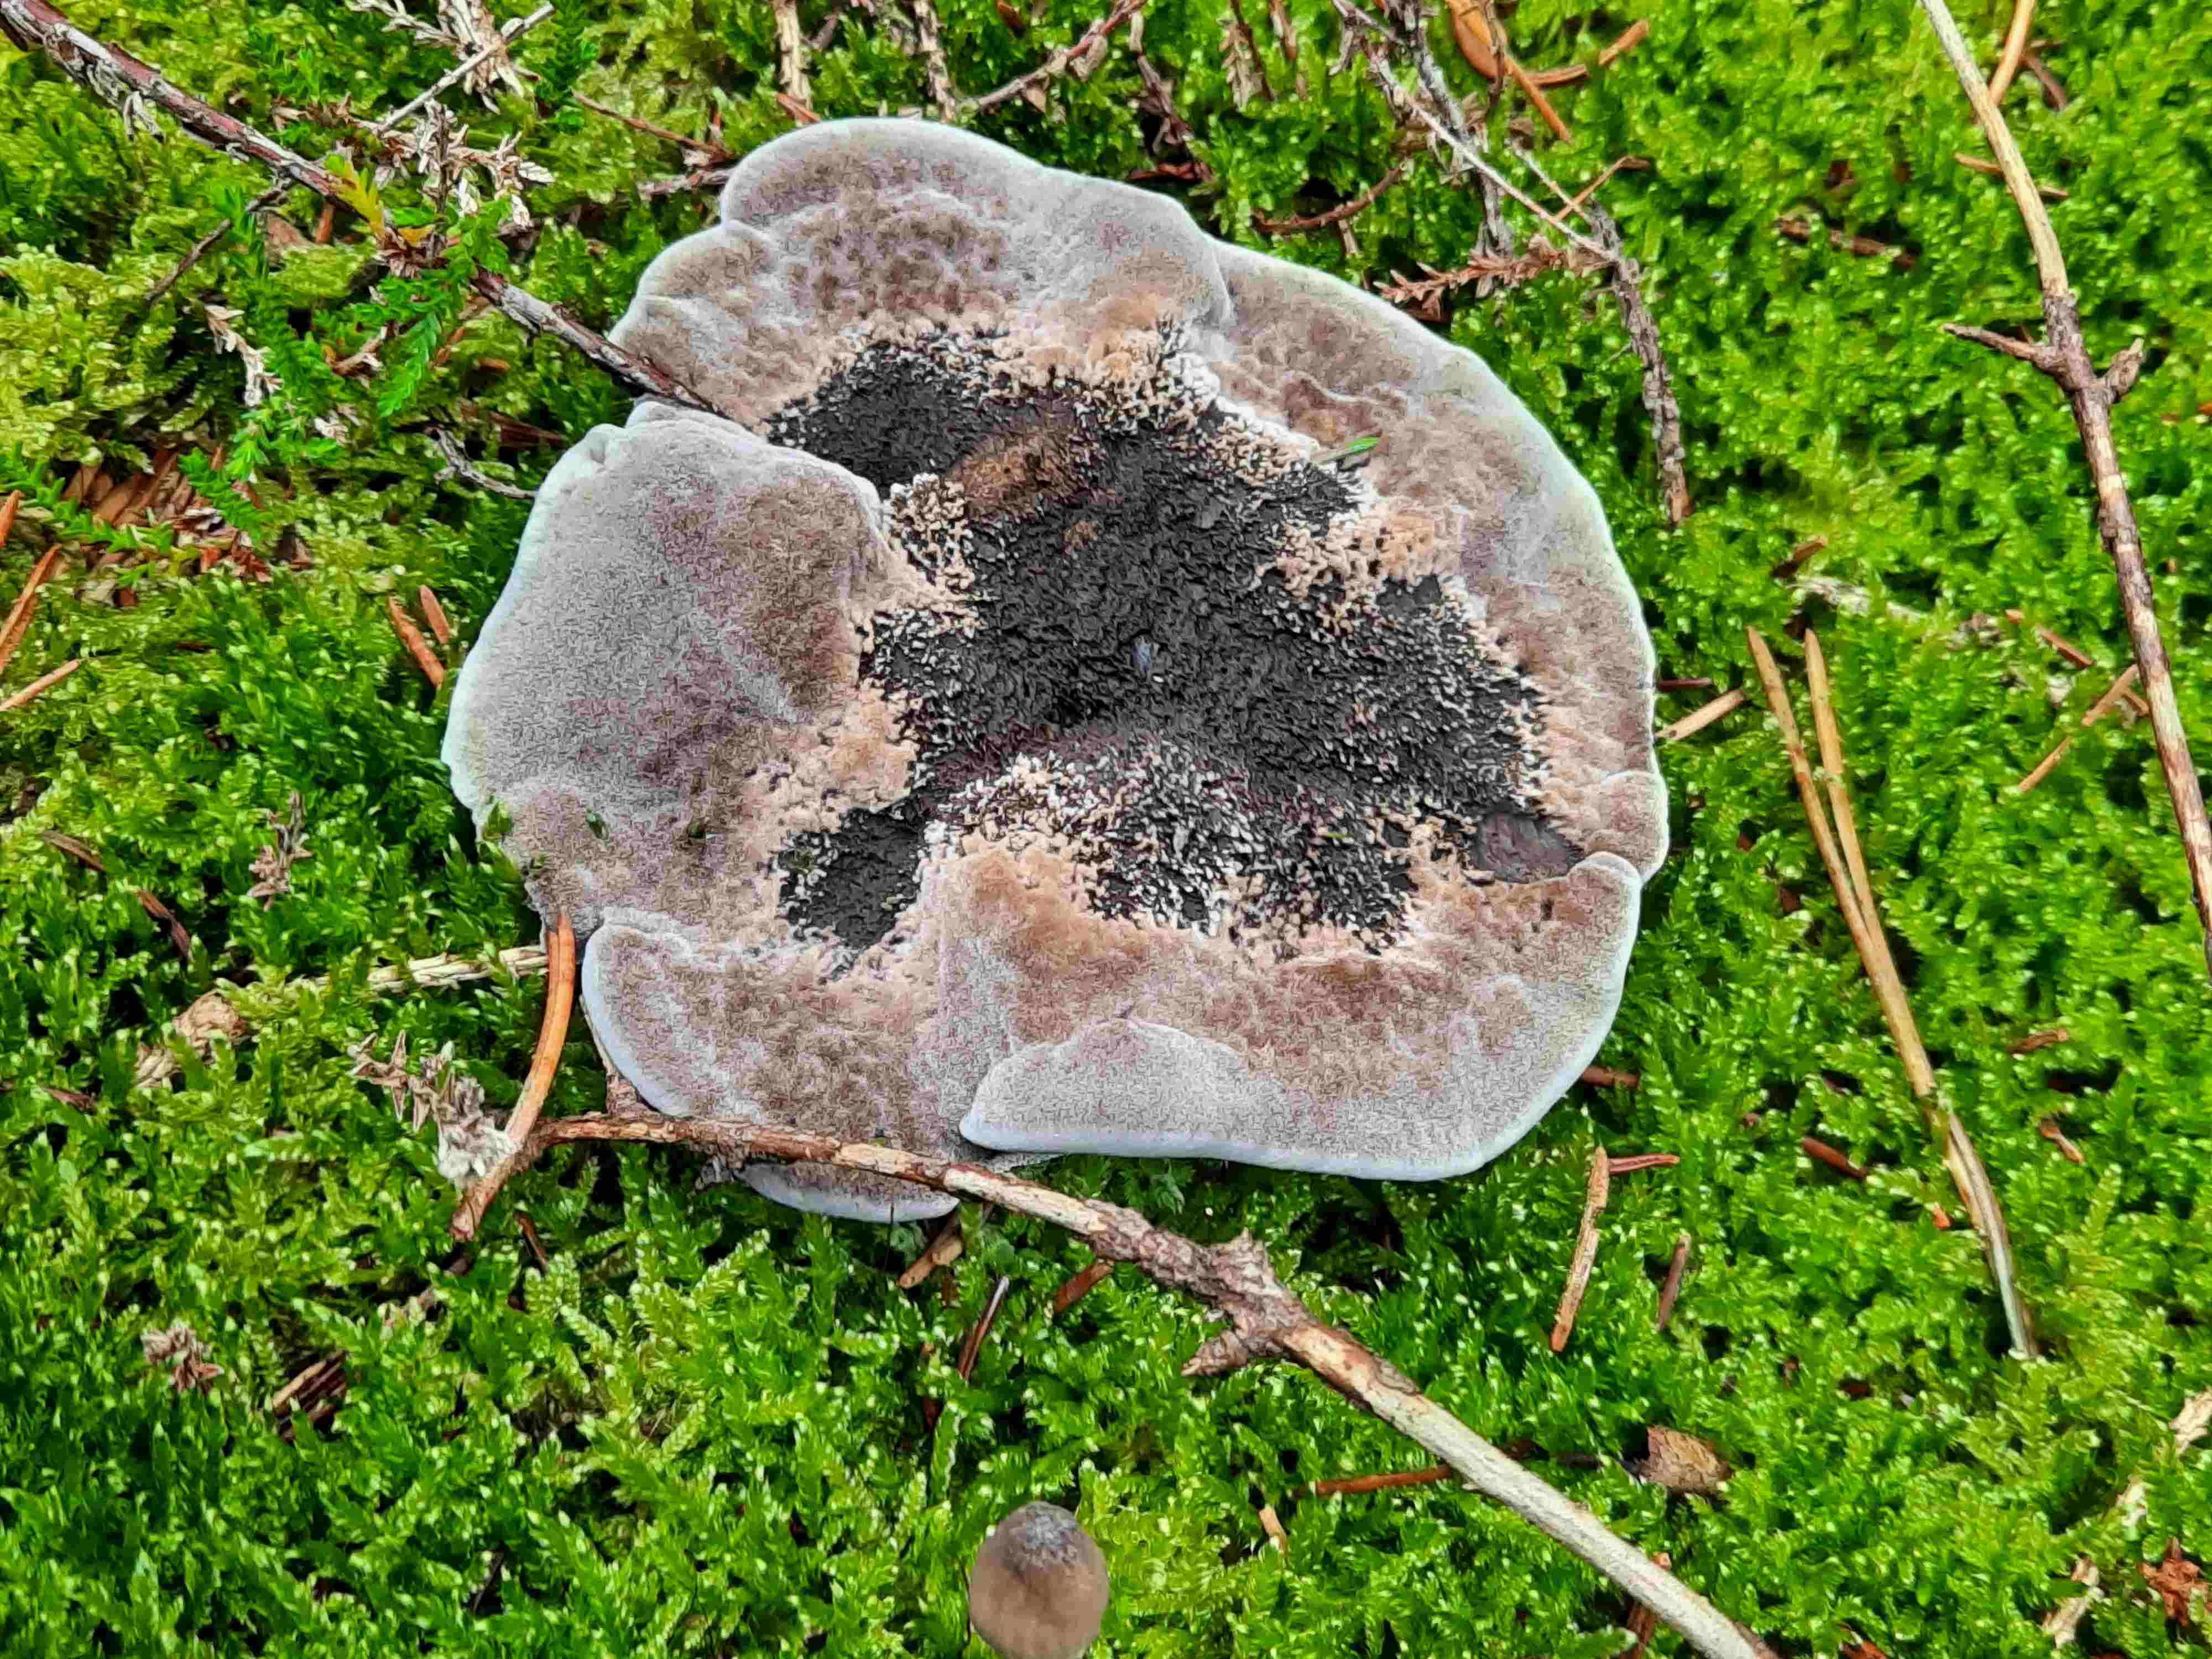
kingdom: Fungi
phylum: Basidiomycota
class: Agaricomycetes
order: Thelephorales
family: Thelephoraceae
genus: Phellodon
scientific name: Phellodon
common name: mørk duftpigsvamp
